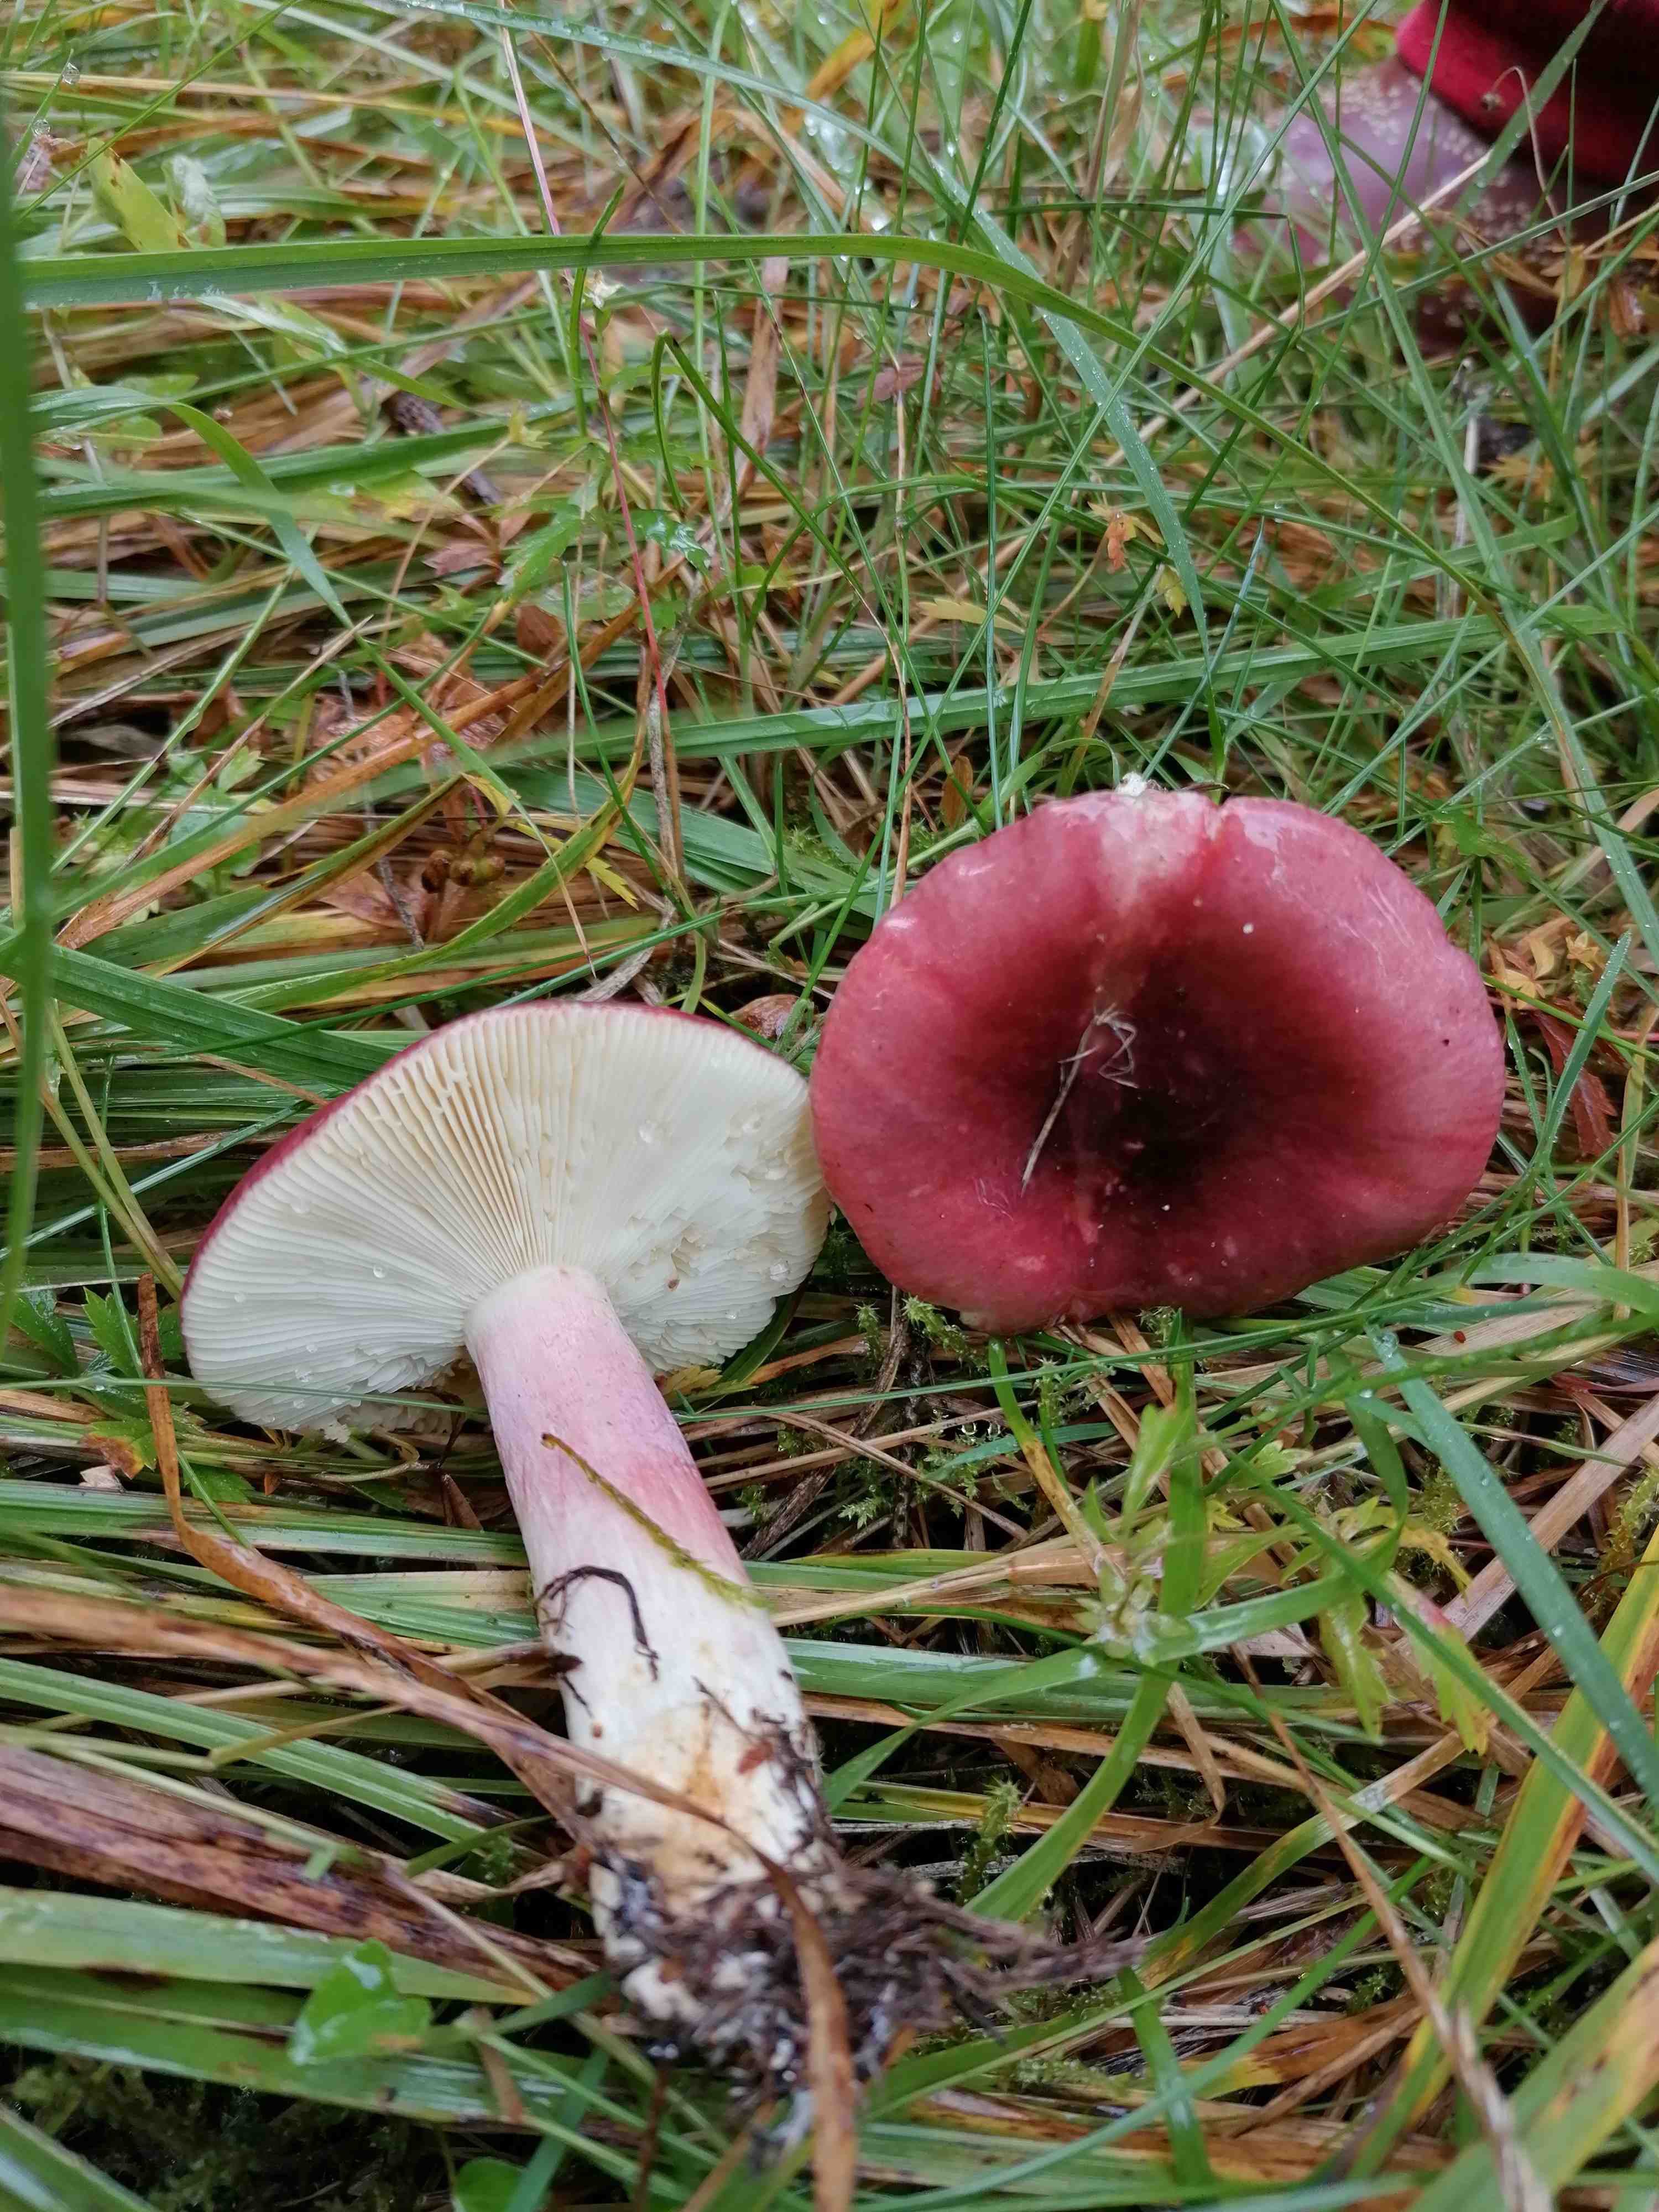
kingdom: Fungi
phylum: Basidiomycota
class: Agaricomycetes
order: Russulales
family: Russulaceae
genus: Russula
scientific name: Russula queletii
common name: Quélets skørhat
